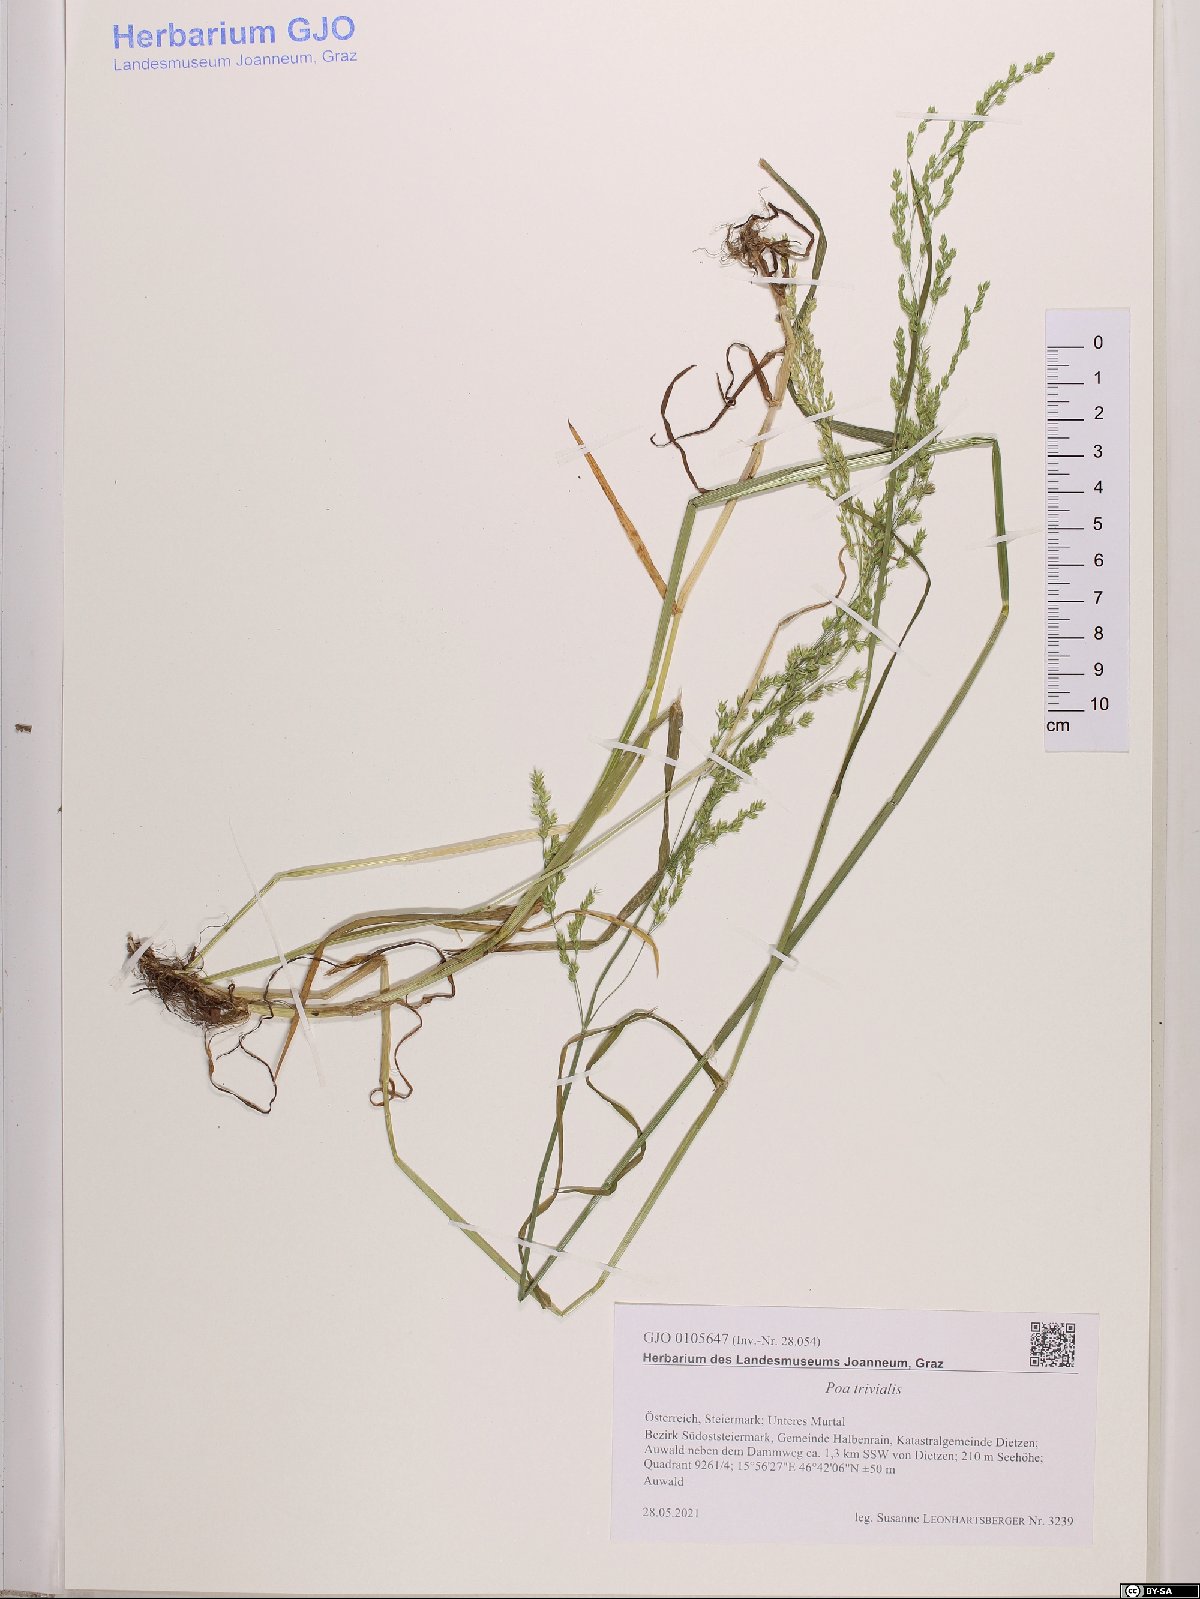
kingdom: Plantae
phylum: Tracheophyta
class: Liliopsida
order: Poales
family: Poaceae
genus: Poa
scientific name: Poa trivialis
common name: Rough bluegrass
